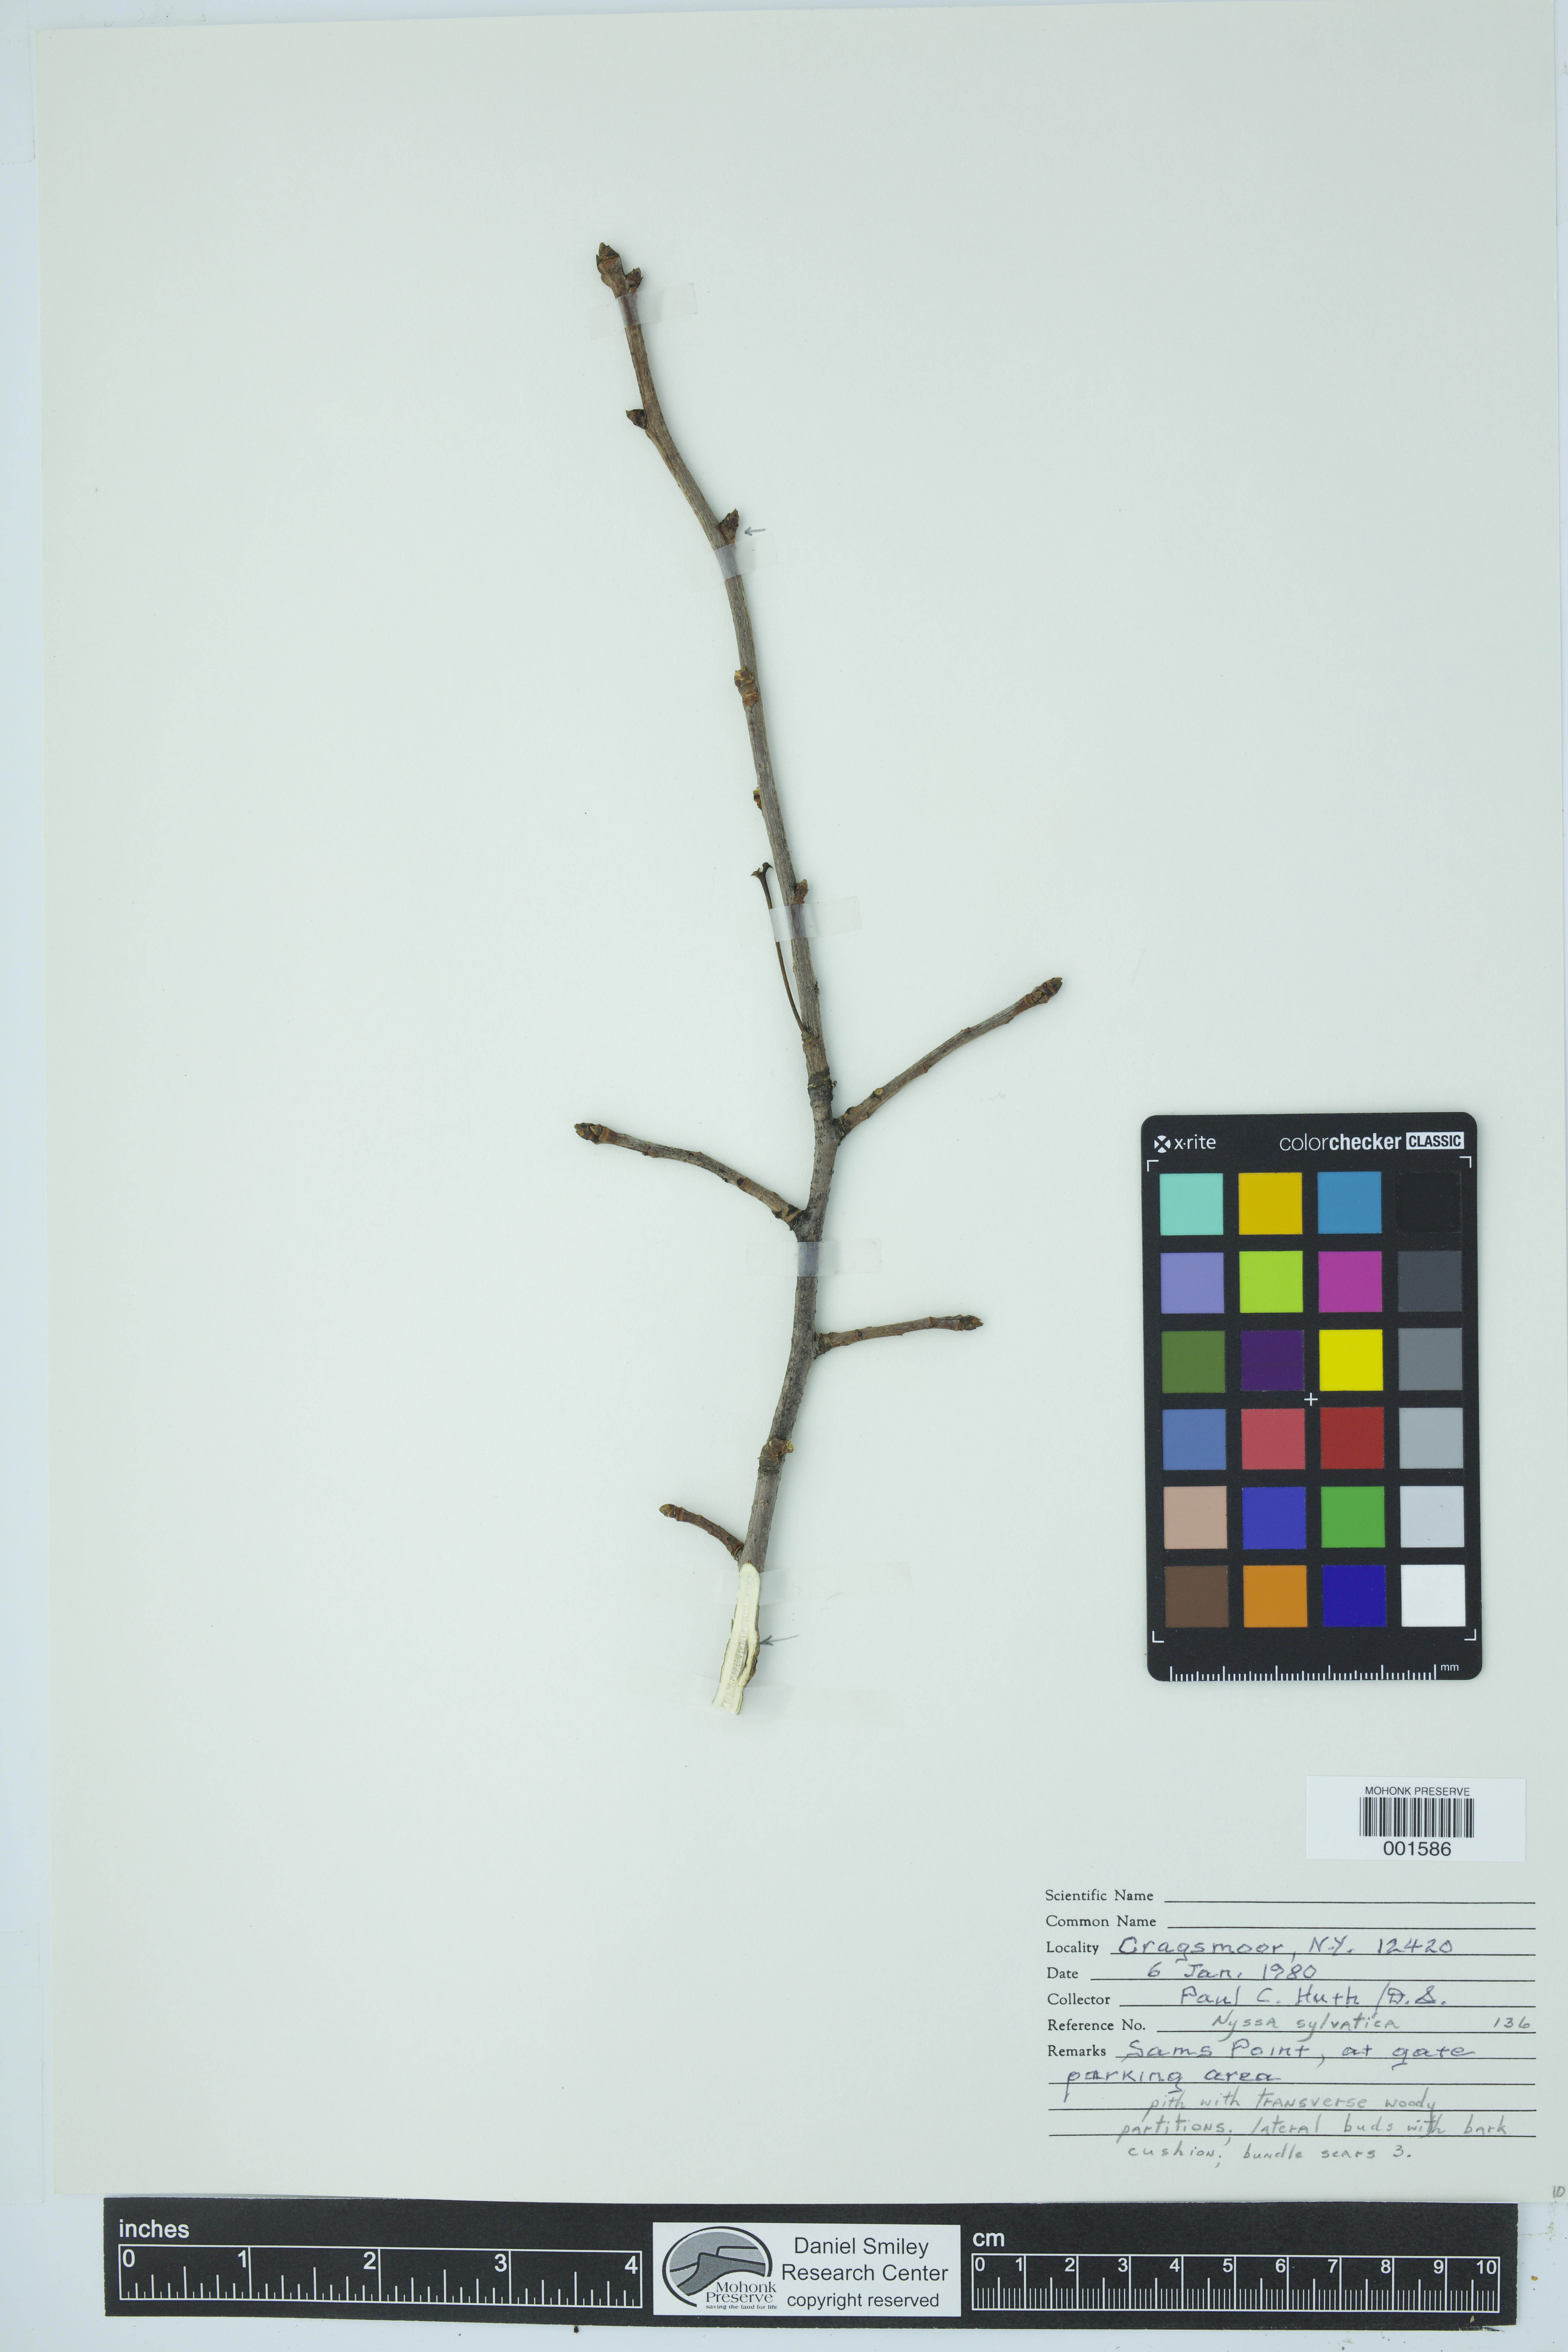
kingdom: Plantae
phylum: Tracheophyta
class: Magnoliopsida
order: Cornales
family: Nyssaceae
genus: Nyssa
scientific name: Nyssa sylvatica
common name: Black tupelo
